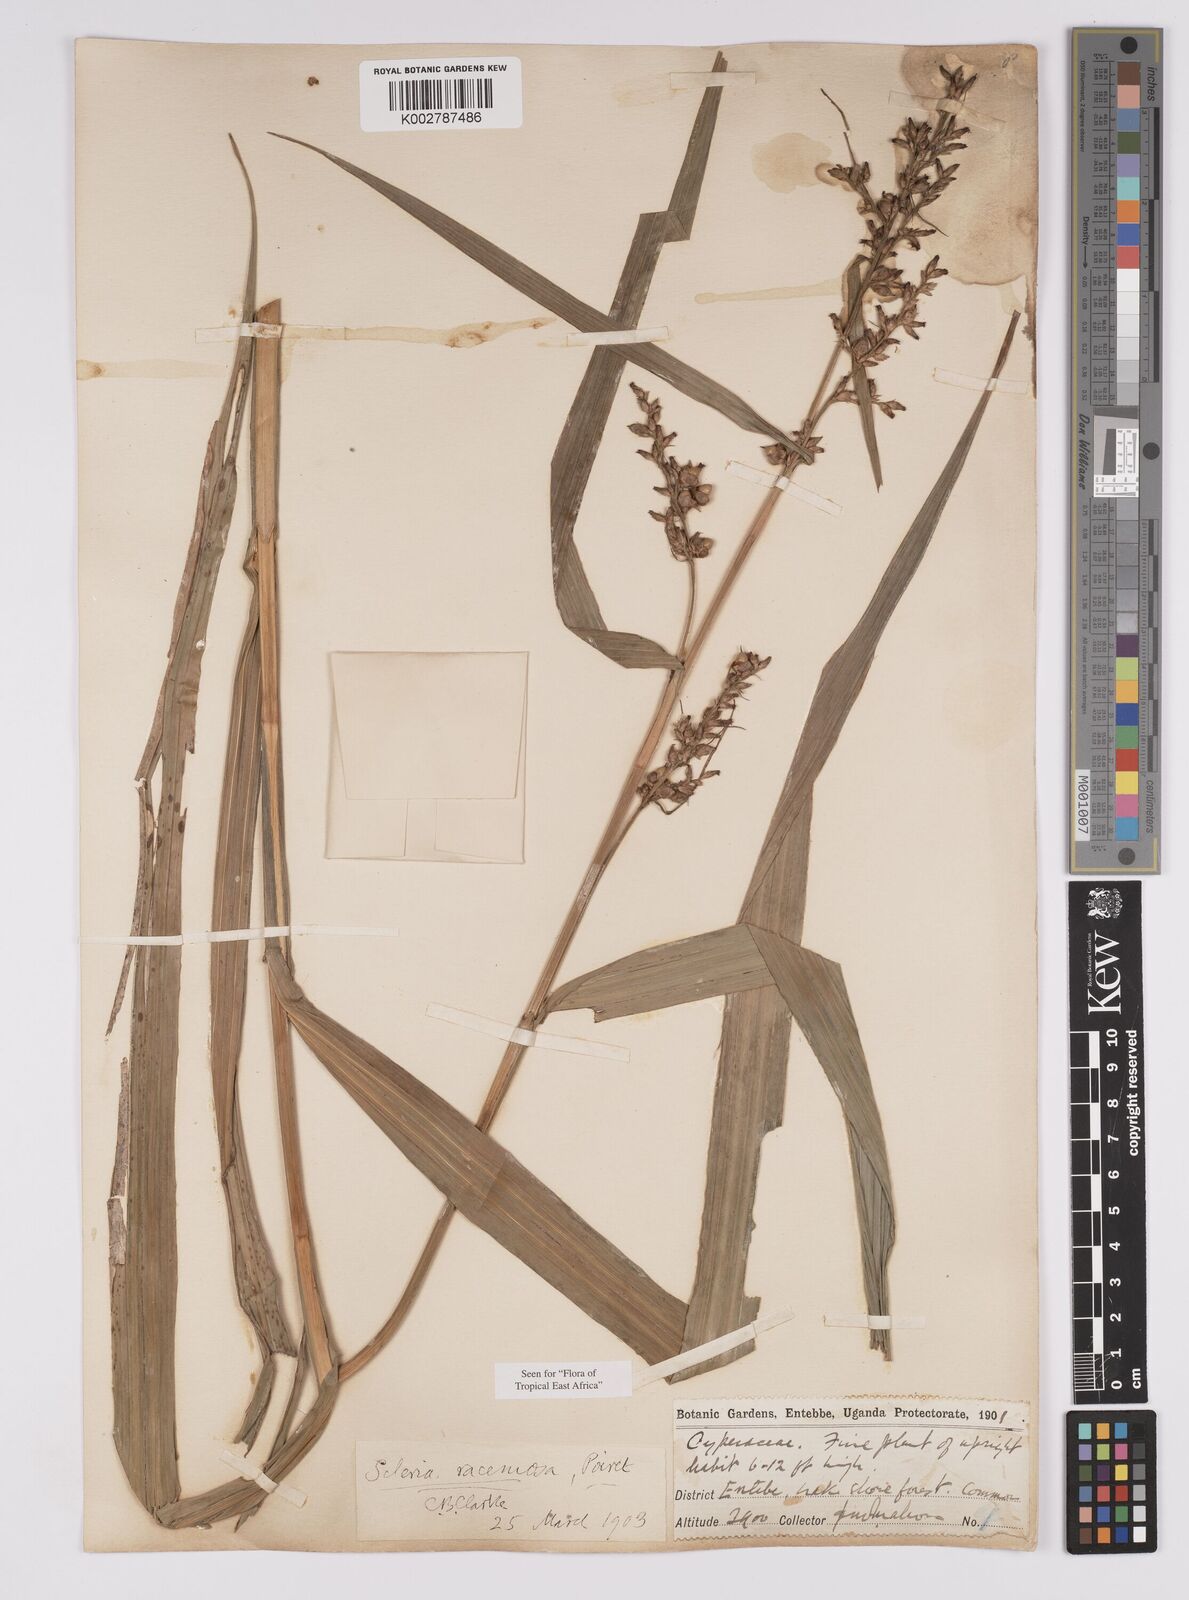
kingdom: Plantae
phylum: Tracheophyta
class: Liliopsida
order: Poales
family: Cyperaceae
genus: Scleria
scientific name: Scleria racemosa
